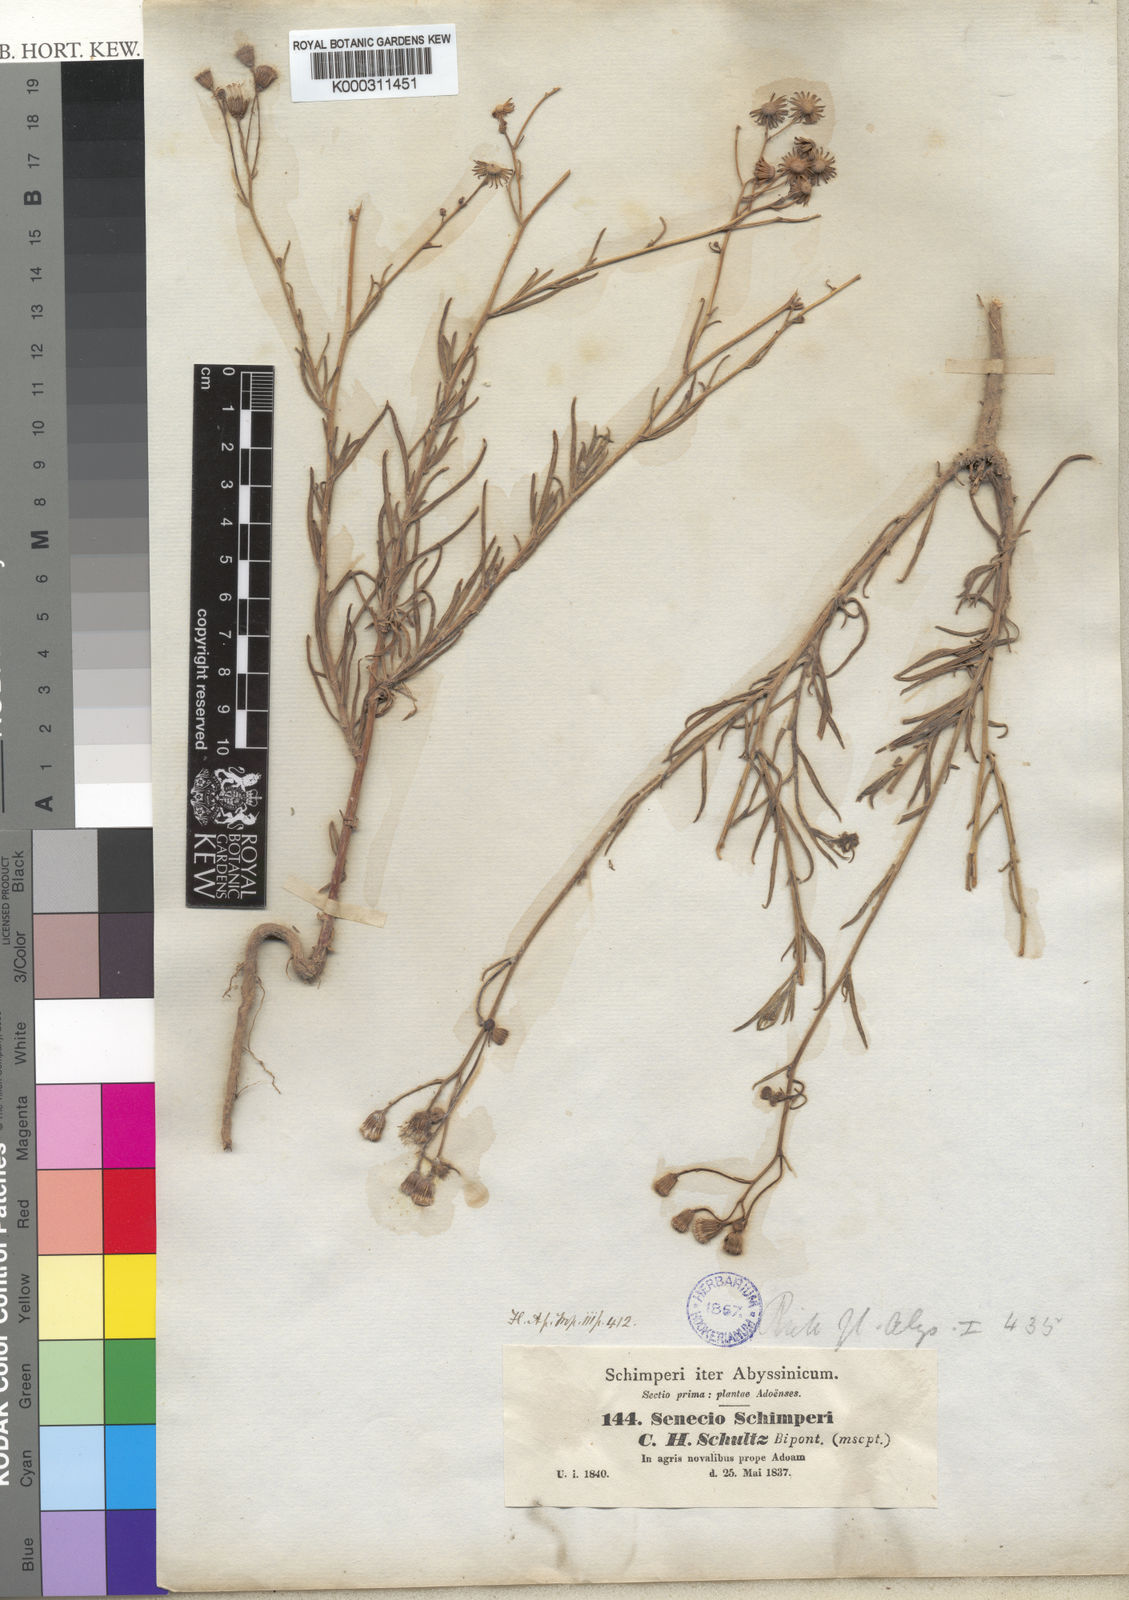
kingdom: Plantae
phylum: Tracheophyta
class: Magnoliopsida
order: Asterales
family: Asteraceae
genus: Senecio
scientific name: Senecio schimperi
